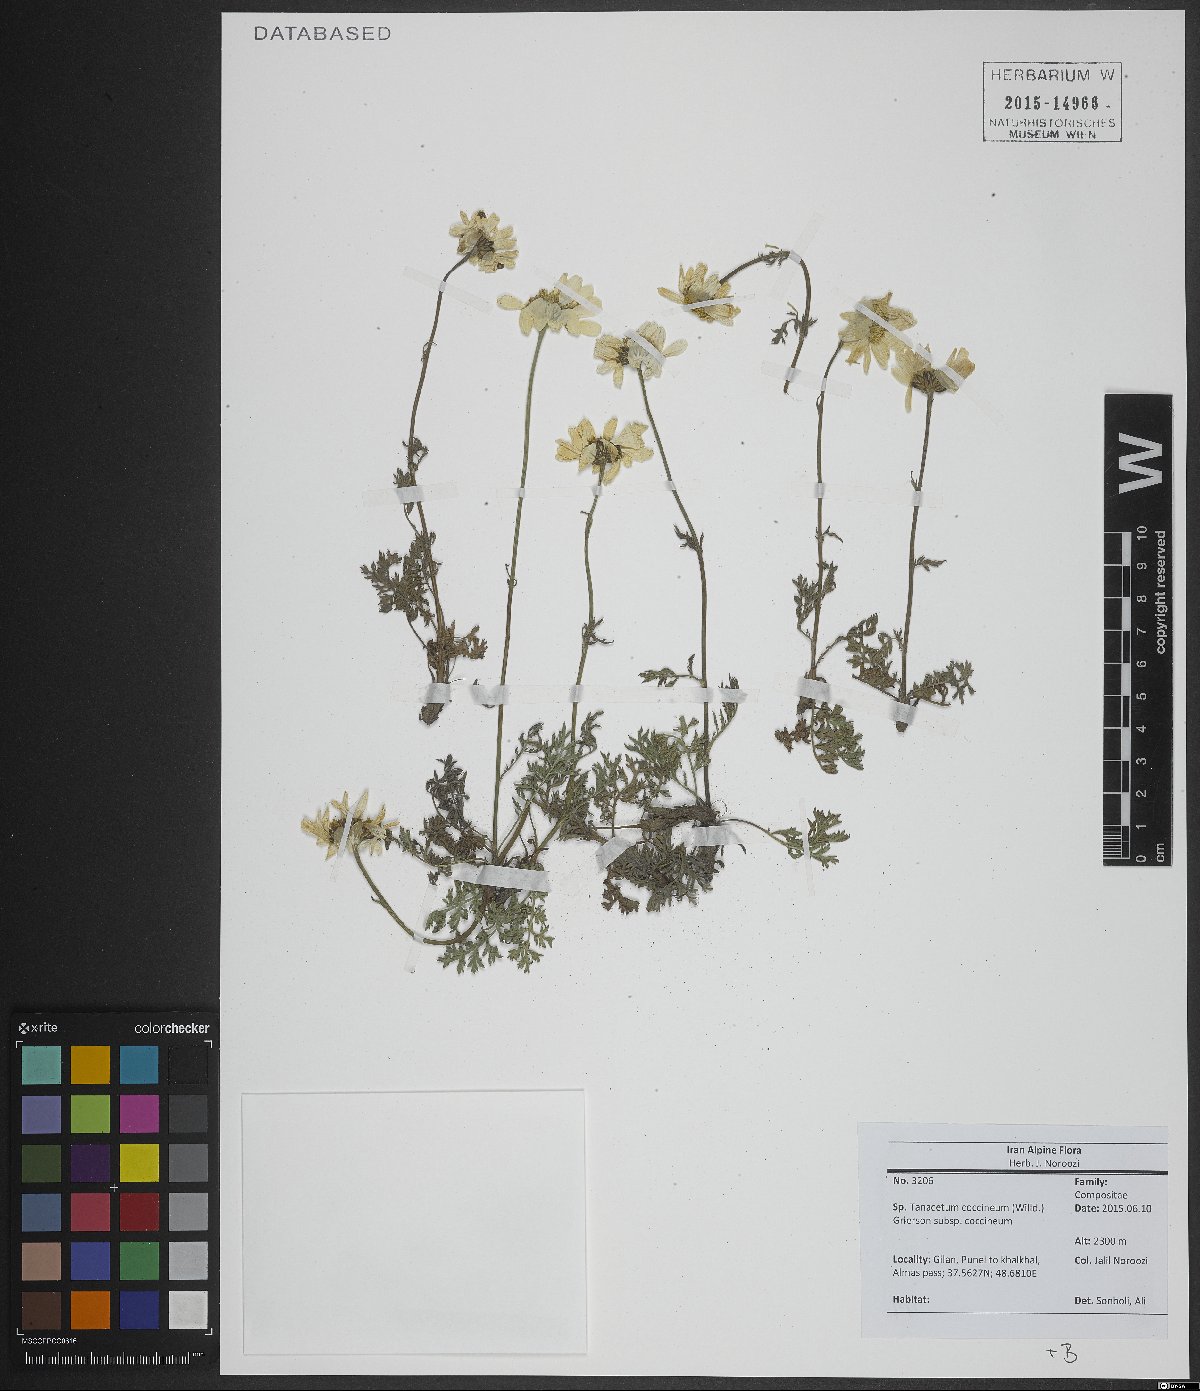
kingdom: Plantae
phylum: Tracheophyta
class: Magnoliopsida
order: Asterales
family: Asteraceae
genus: Tanacetum
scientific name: Tanacetum coccineum
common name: Pyrethum daisy
